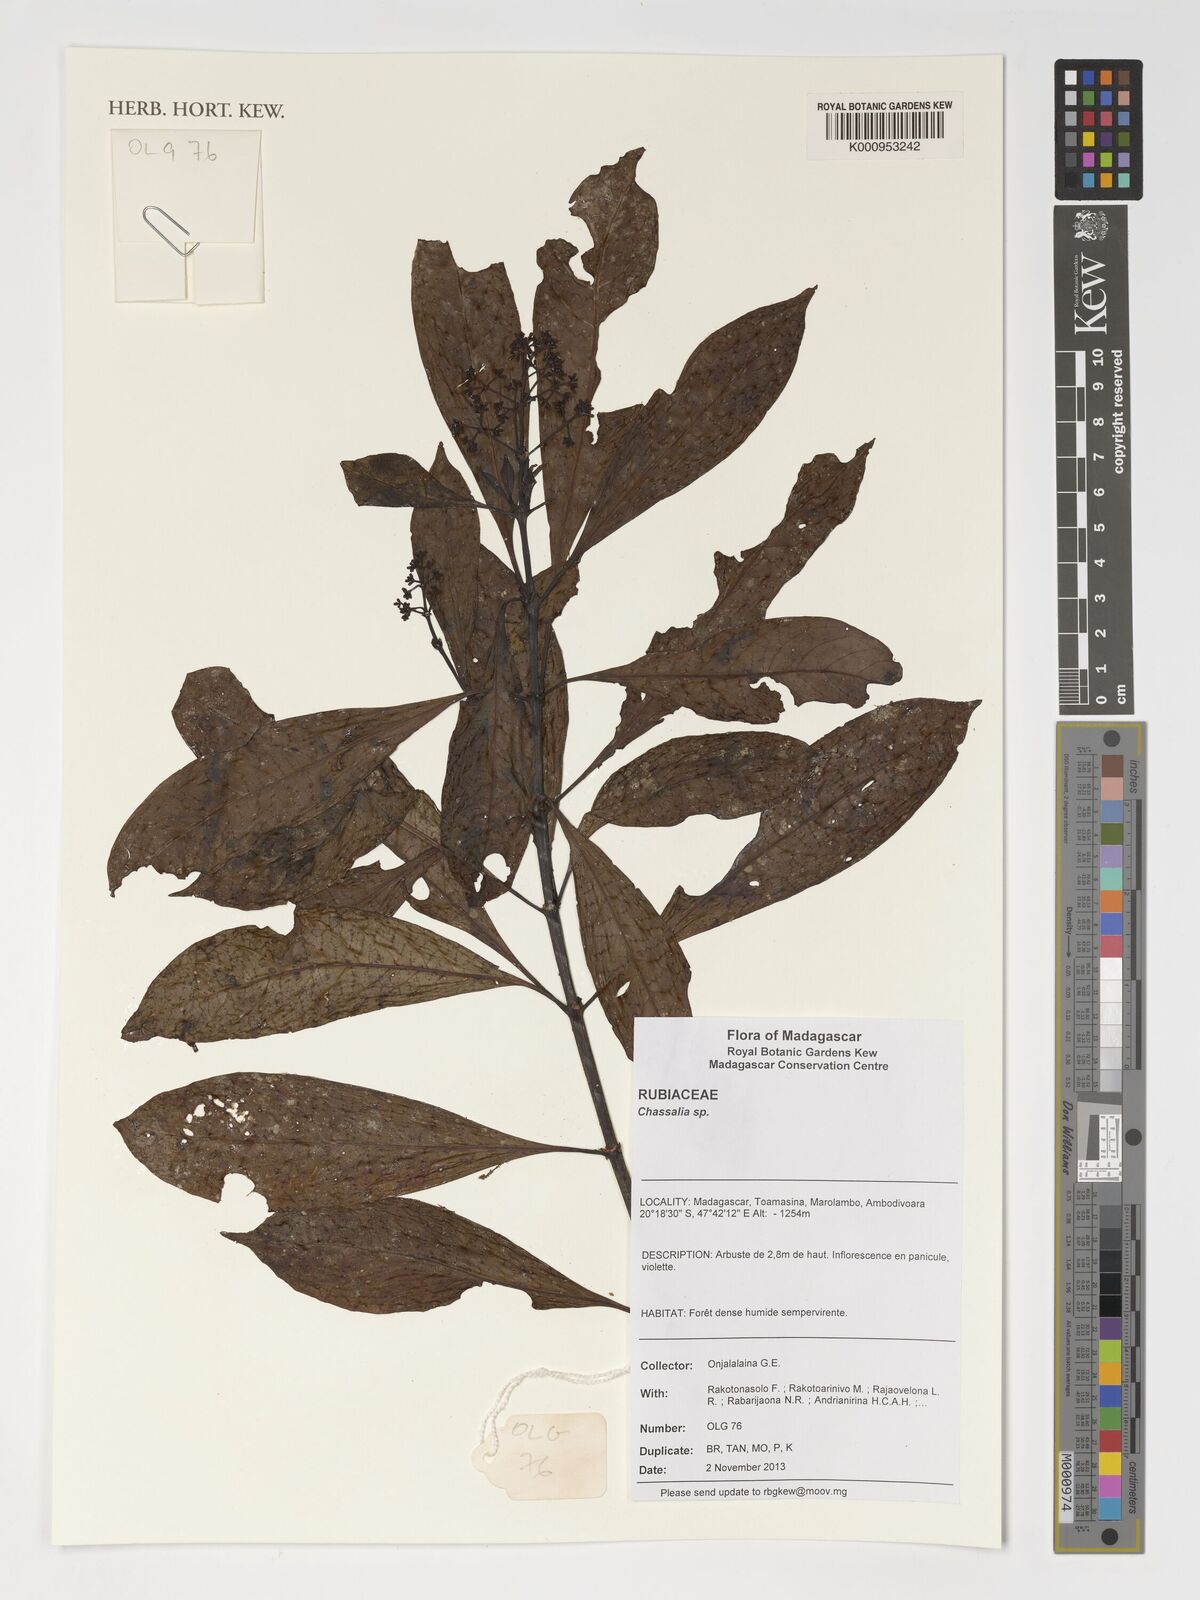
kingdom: Plantae
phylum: Tracheophyta
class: Magnoliopsida
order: Gentianales
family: Rubiaceae
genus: Chassalia
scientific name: Chassalia
